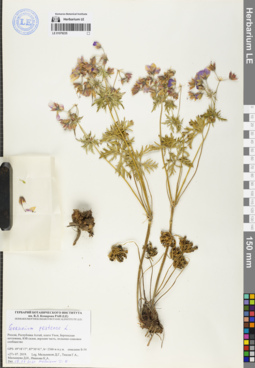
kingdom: Plantae
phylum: Tracheophyta
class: Magnoliopsida
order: Geraniales
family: Geraniaceae
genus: Geranium
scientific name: Geranium pratense
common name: Meadow crane's-bill
